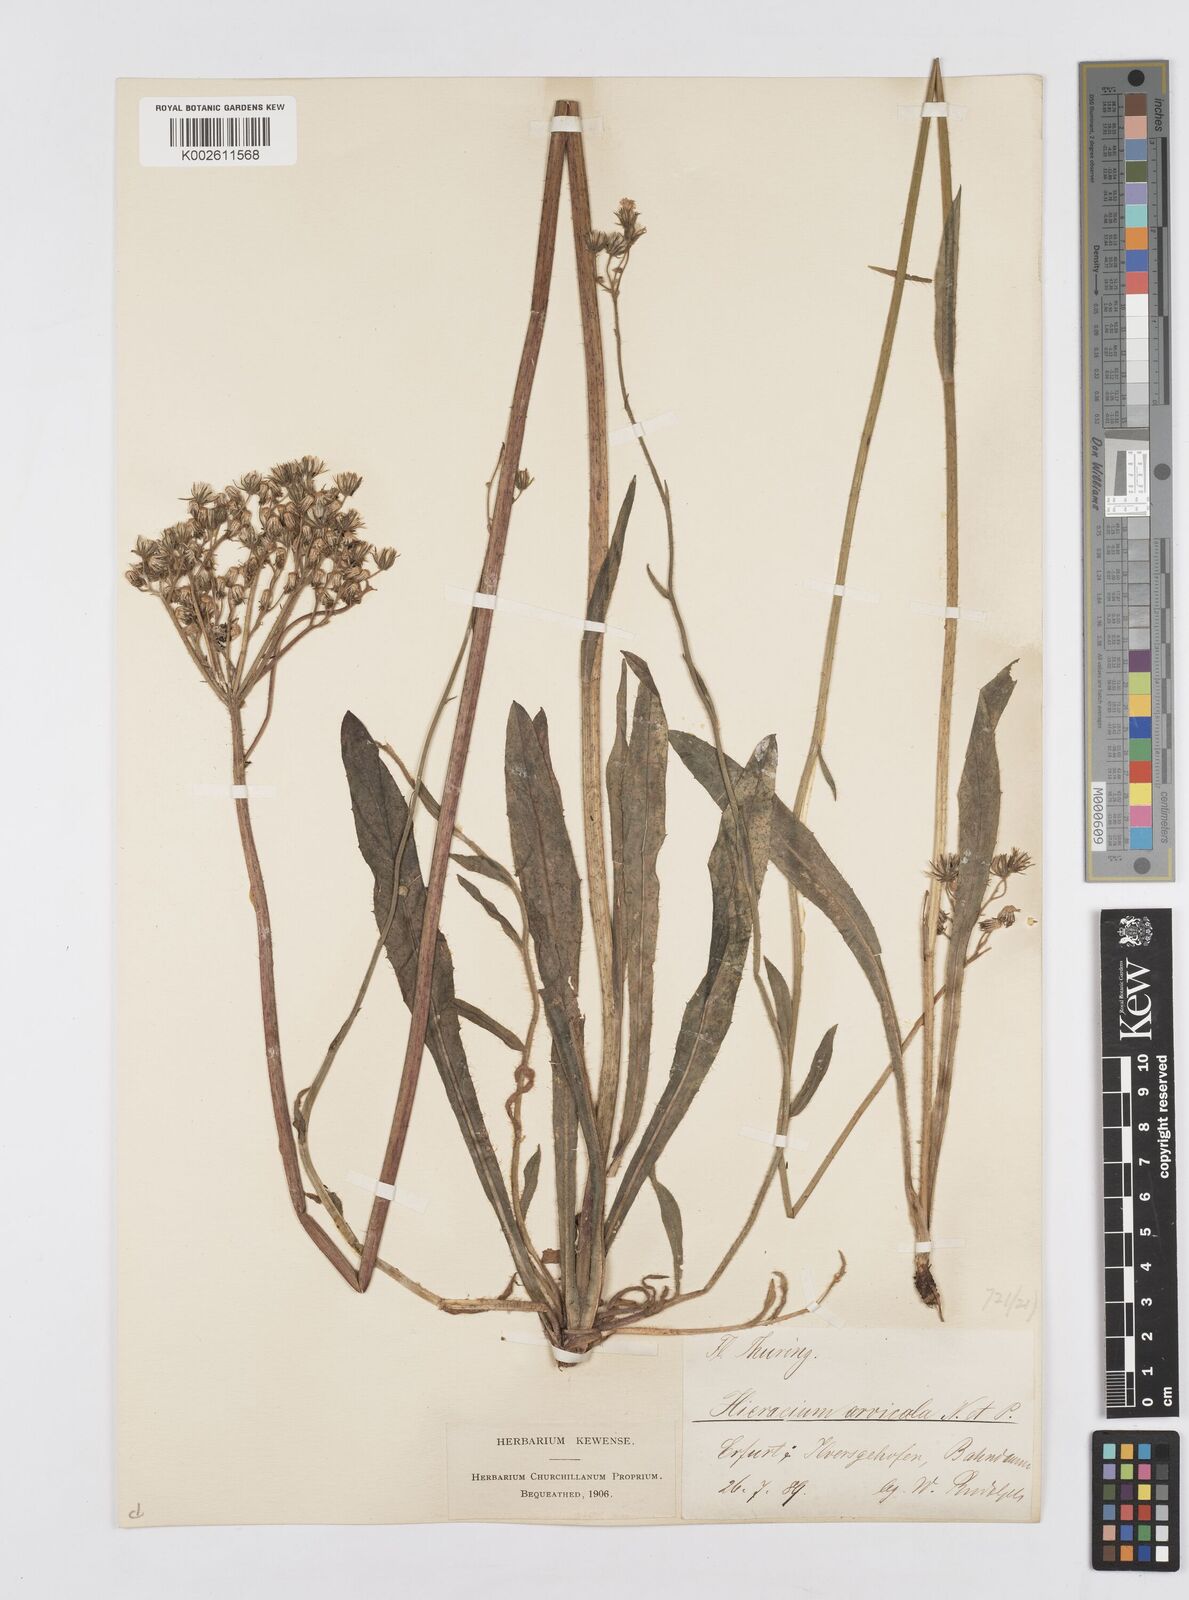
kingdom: Plantae
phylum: Tracheophyta
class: Magnoliopsida
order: Asterales
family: Asteraceae
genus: Pilosella
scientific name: Pilosella erythrochrista
